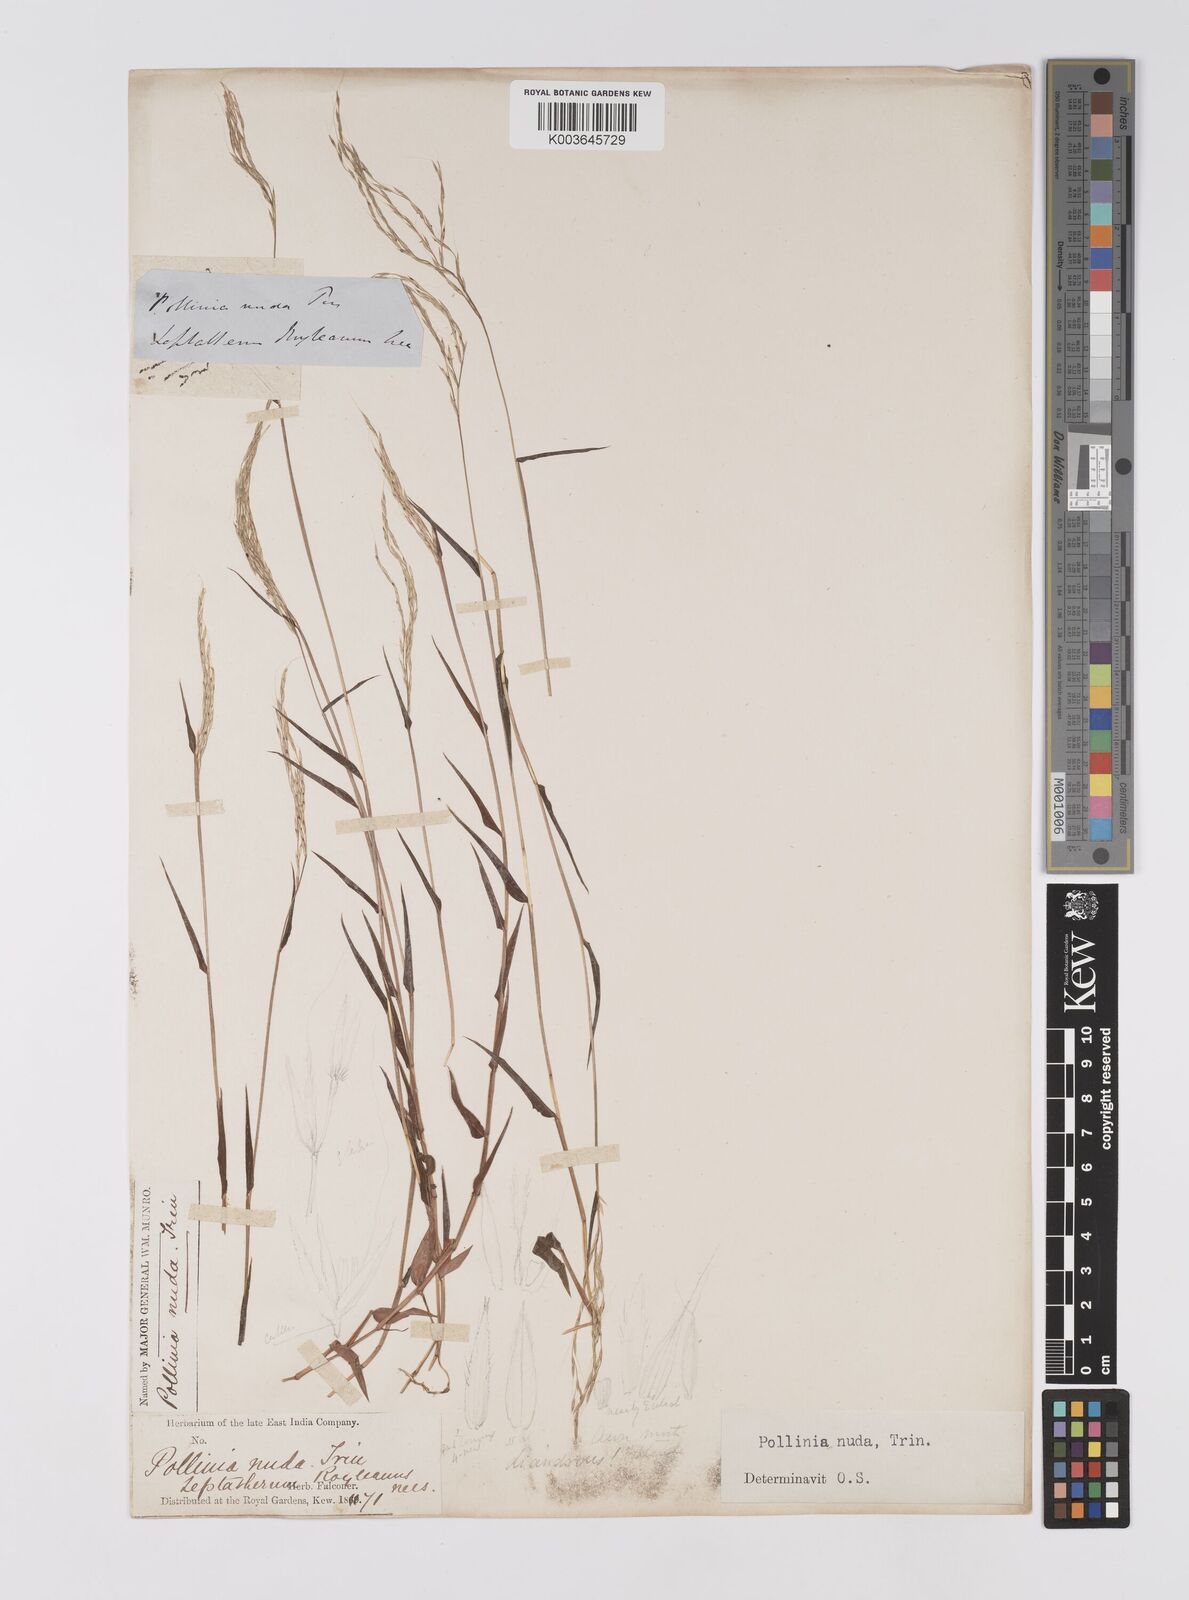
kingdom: Plantae
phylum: Tracheophyta
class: Liliopsida
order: Poales
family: Poaceae
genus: Microstegium
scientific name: Microstegium nudum
